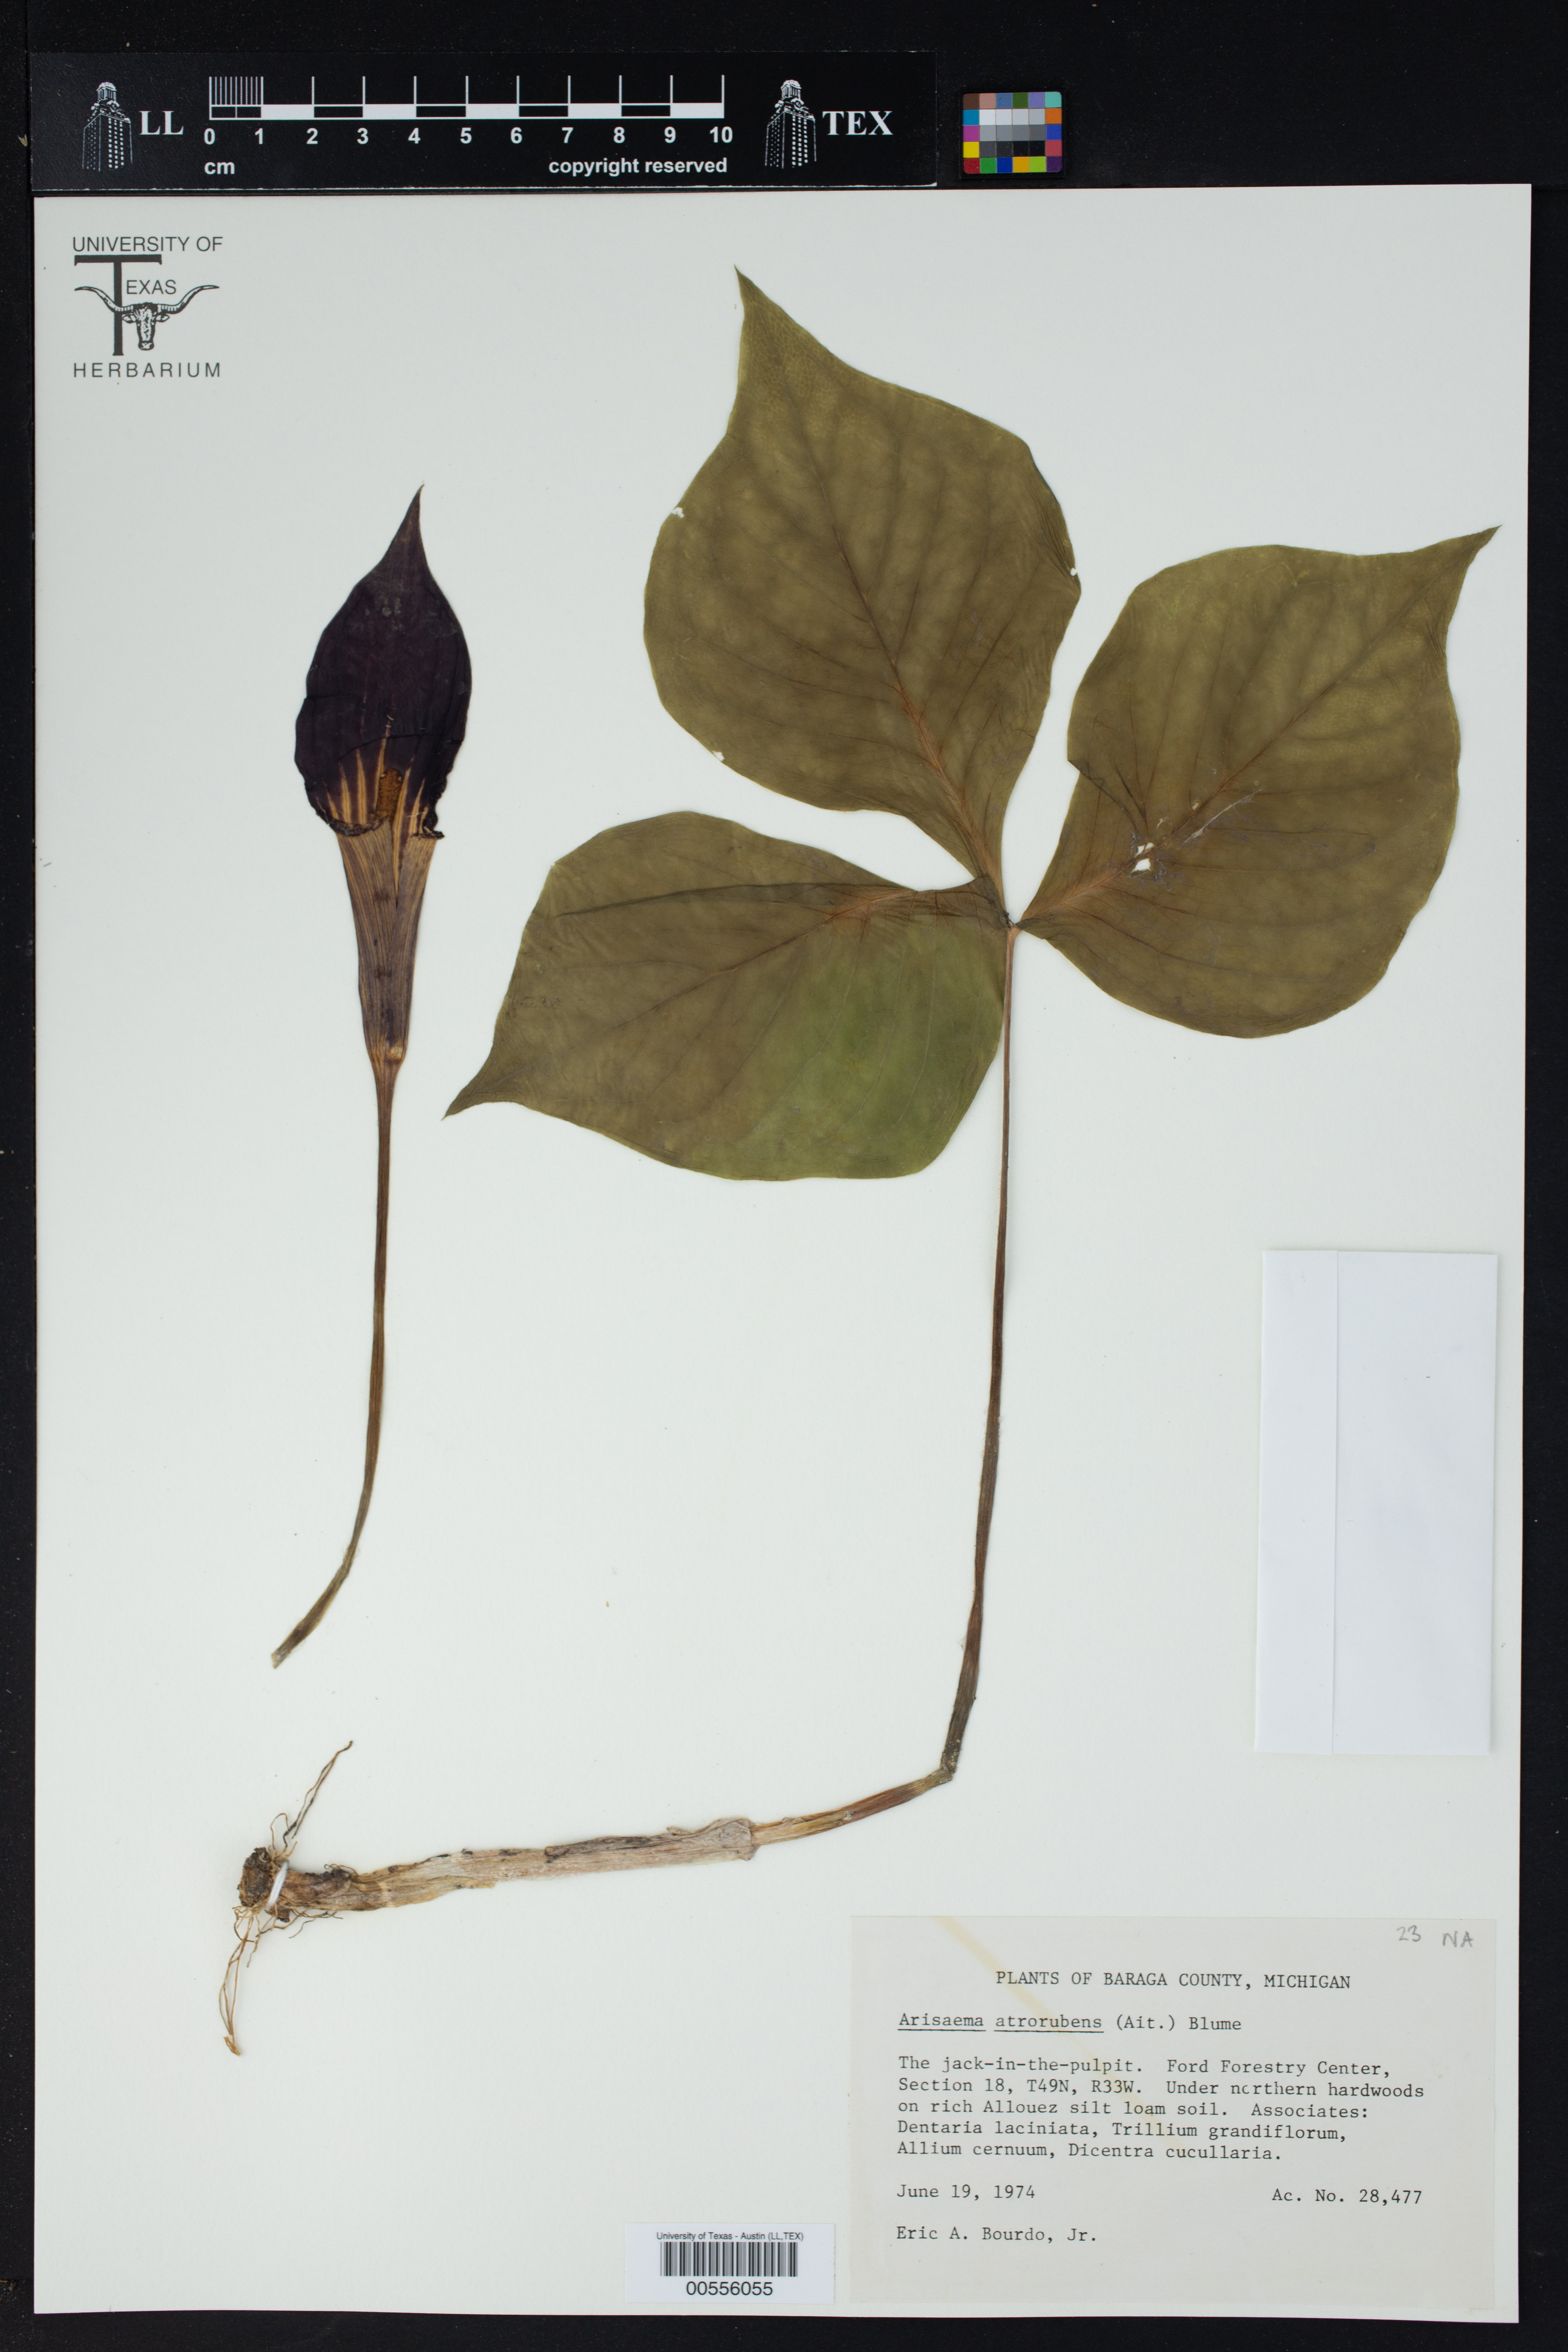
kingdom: Plantae
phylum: Tracheophyta
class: Liliopsida
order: Alismatales
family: Araceae
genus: Arisaema
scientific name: Arisaema triphyllum
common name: Jack-in-the-pulpit
